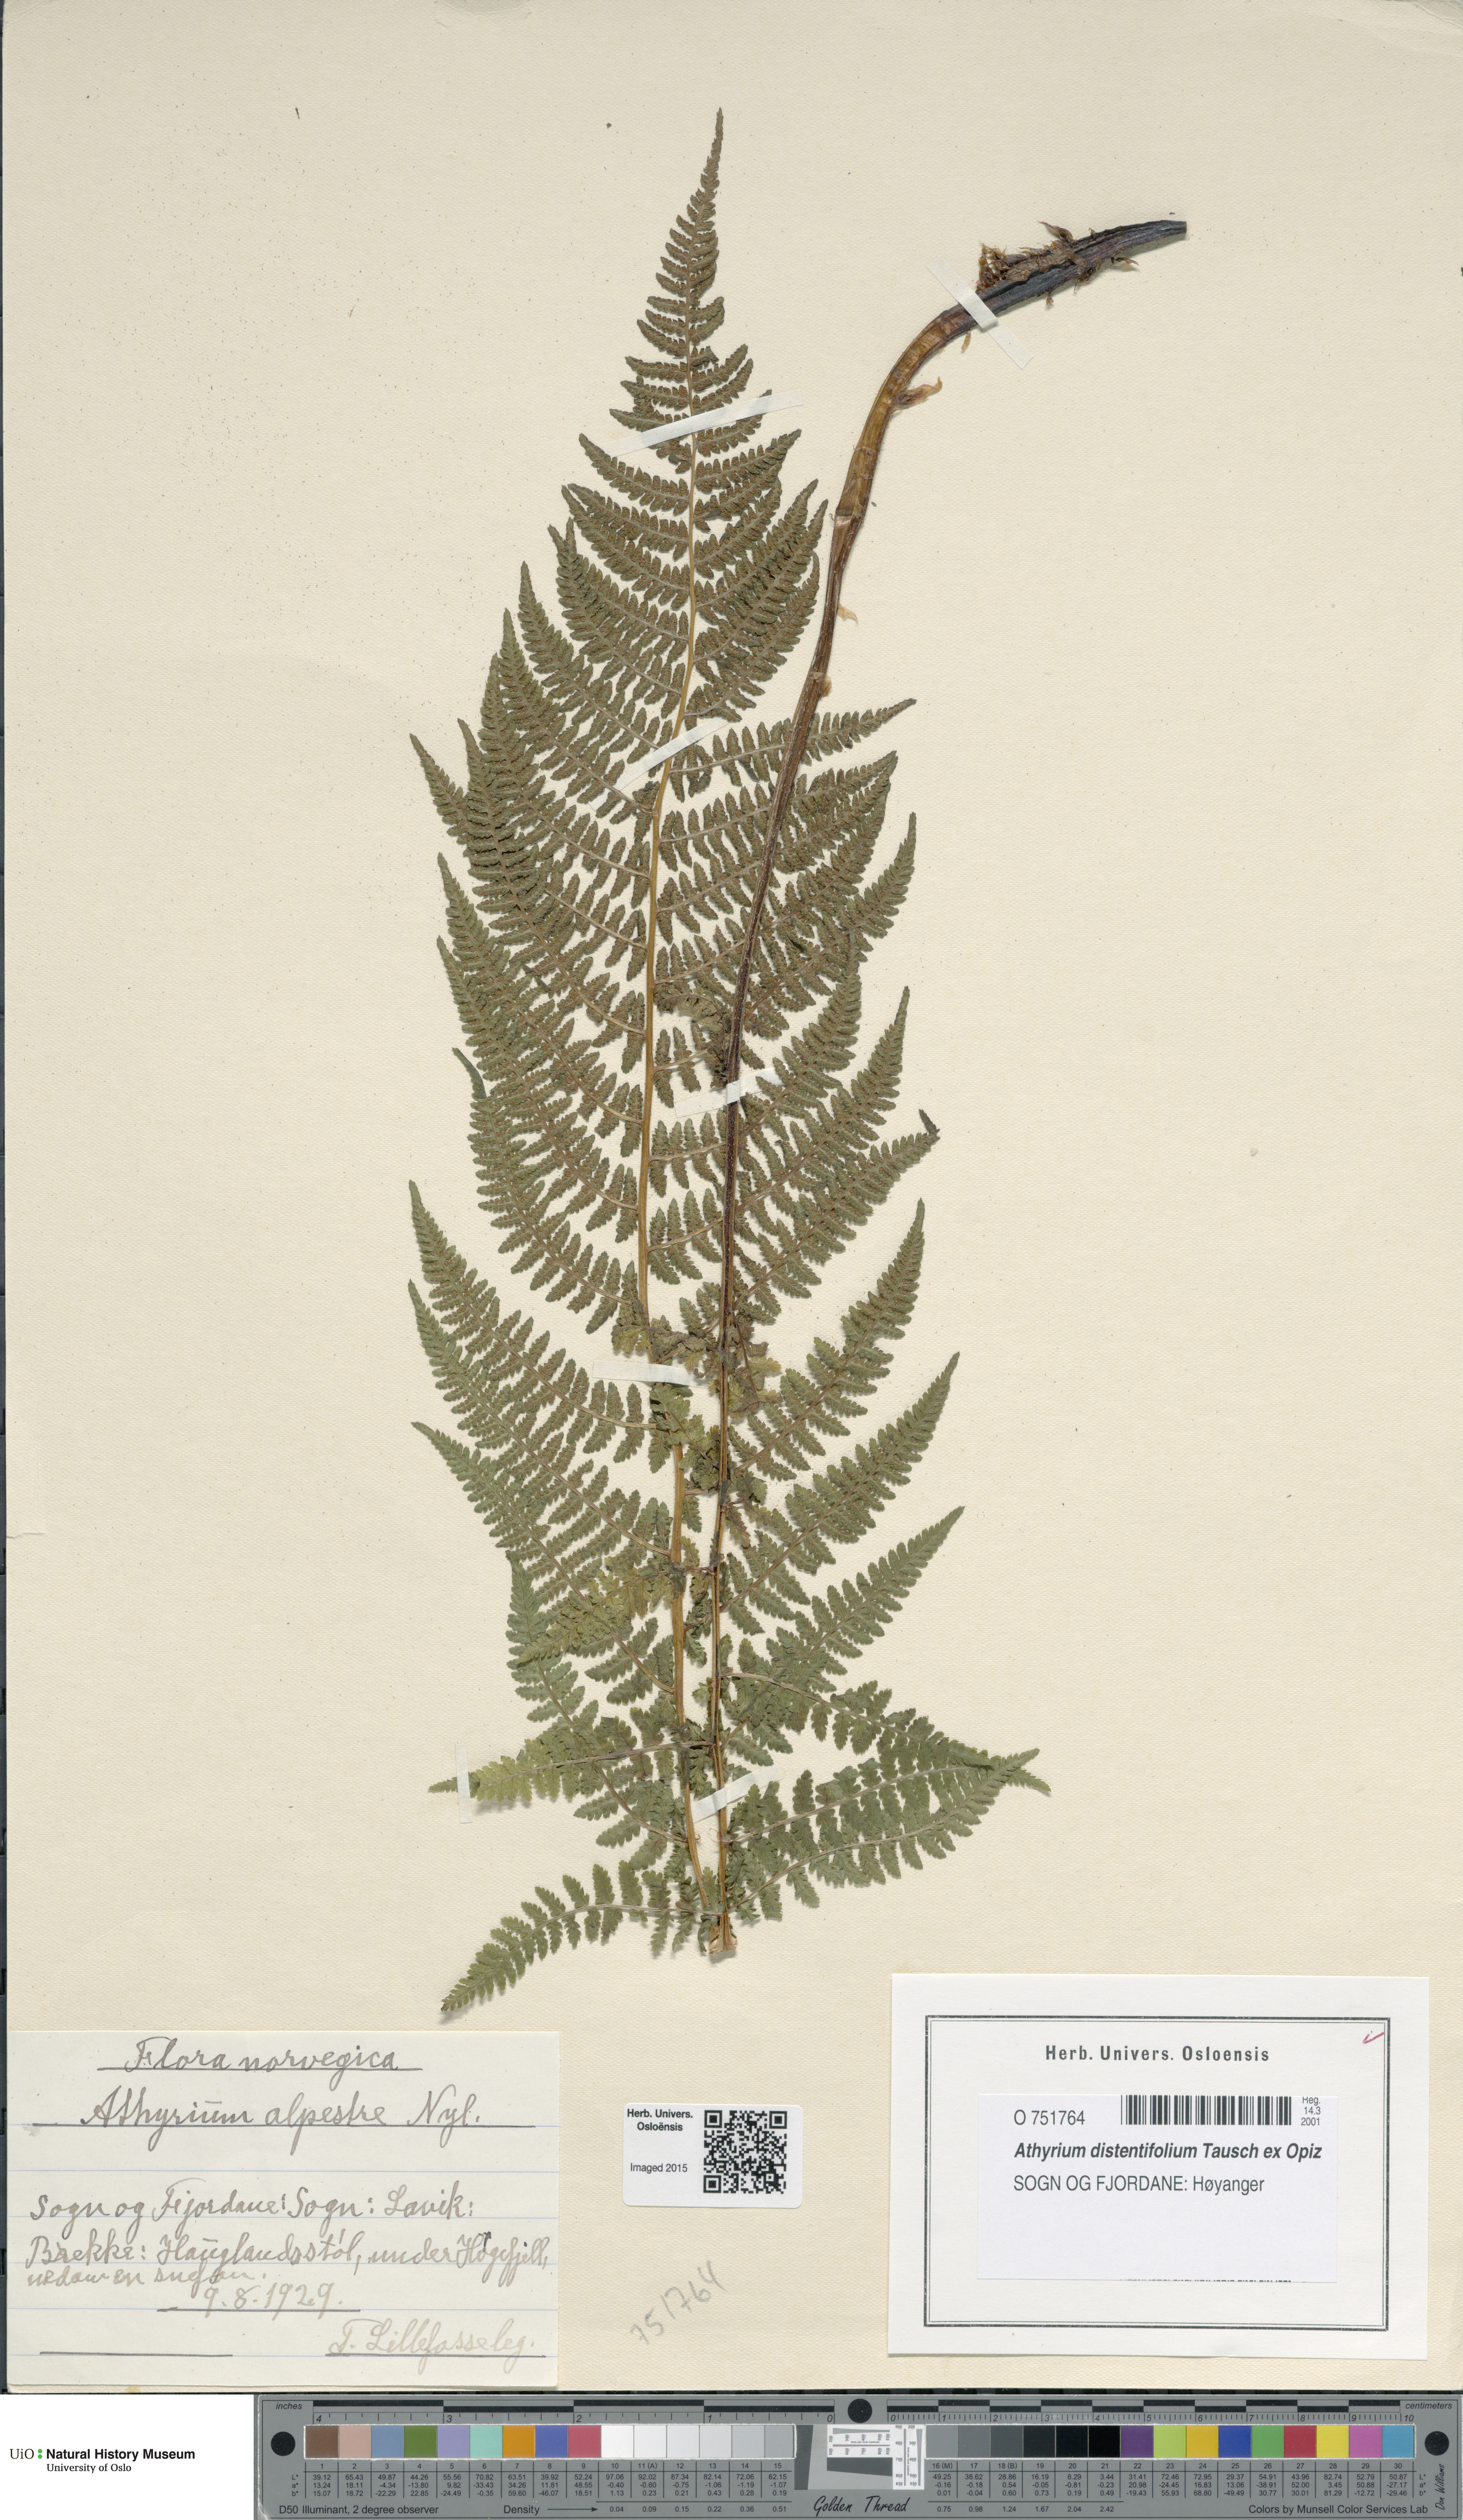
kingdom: Plantae
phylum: Tracheophyta
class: Polypodiopsida
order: Polypodiales
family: Athyriaceae
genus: Pseudathyrium
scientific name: Pseudathyrium alpestre
